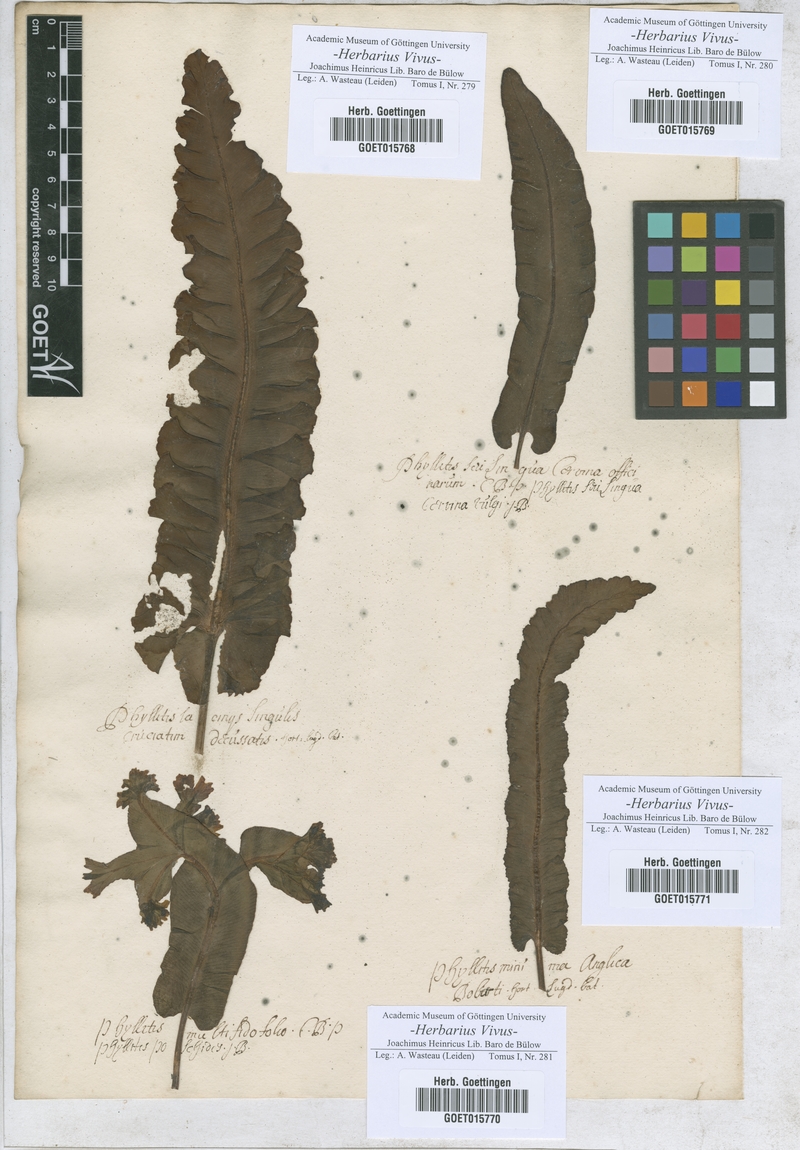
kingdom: Plantae
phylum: Tracheophyta
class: Polypodiopsida
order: Polypodiales
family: Aspleniaceae
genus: Phyllitis
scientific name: Phyllitis
